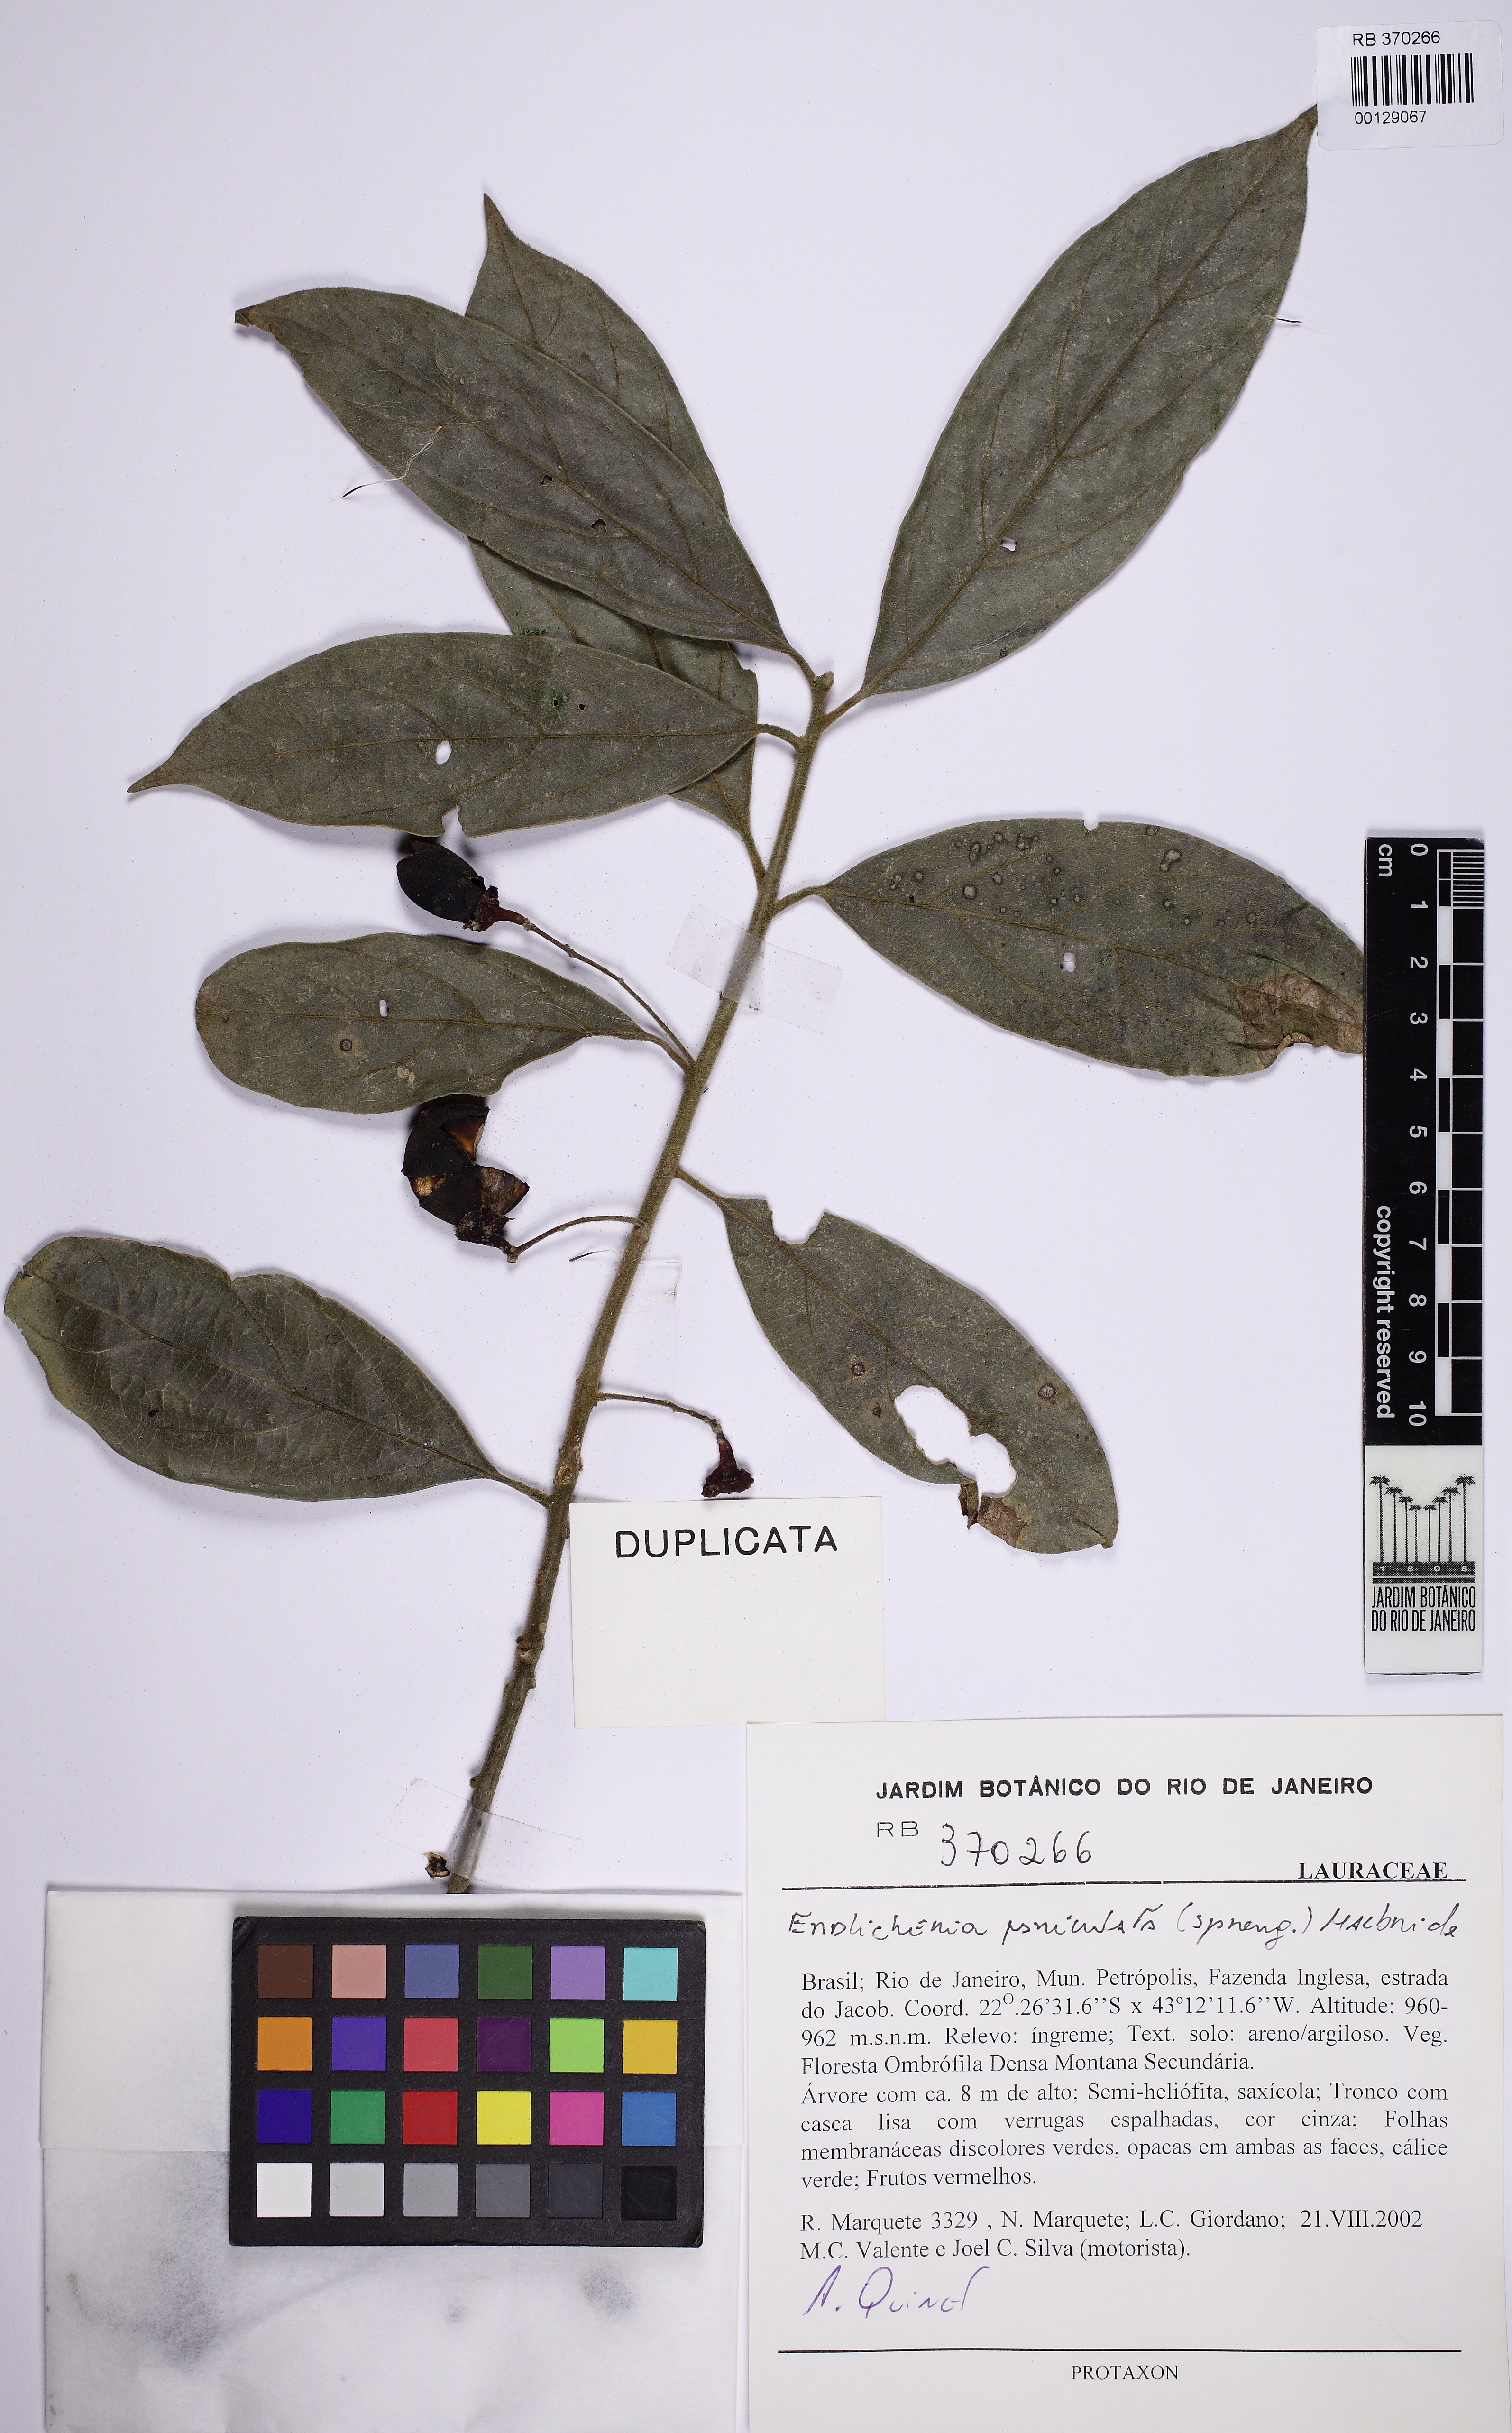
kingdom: Plantae
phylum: Tracheophyta
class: Magnoliopsida
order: Laurales
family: Lauraceae
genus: Endlicheria
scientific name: Endlicheria paniculata
